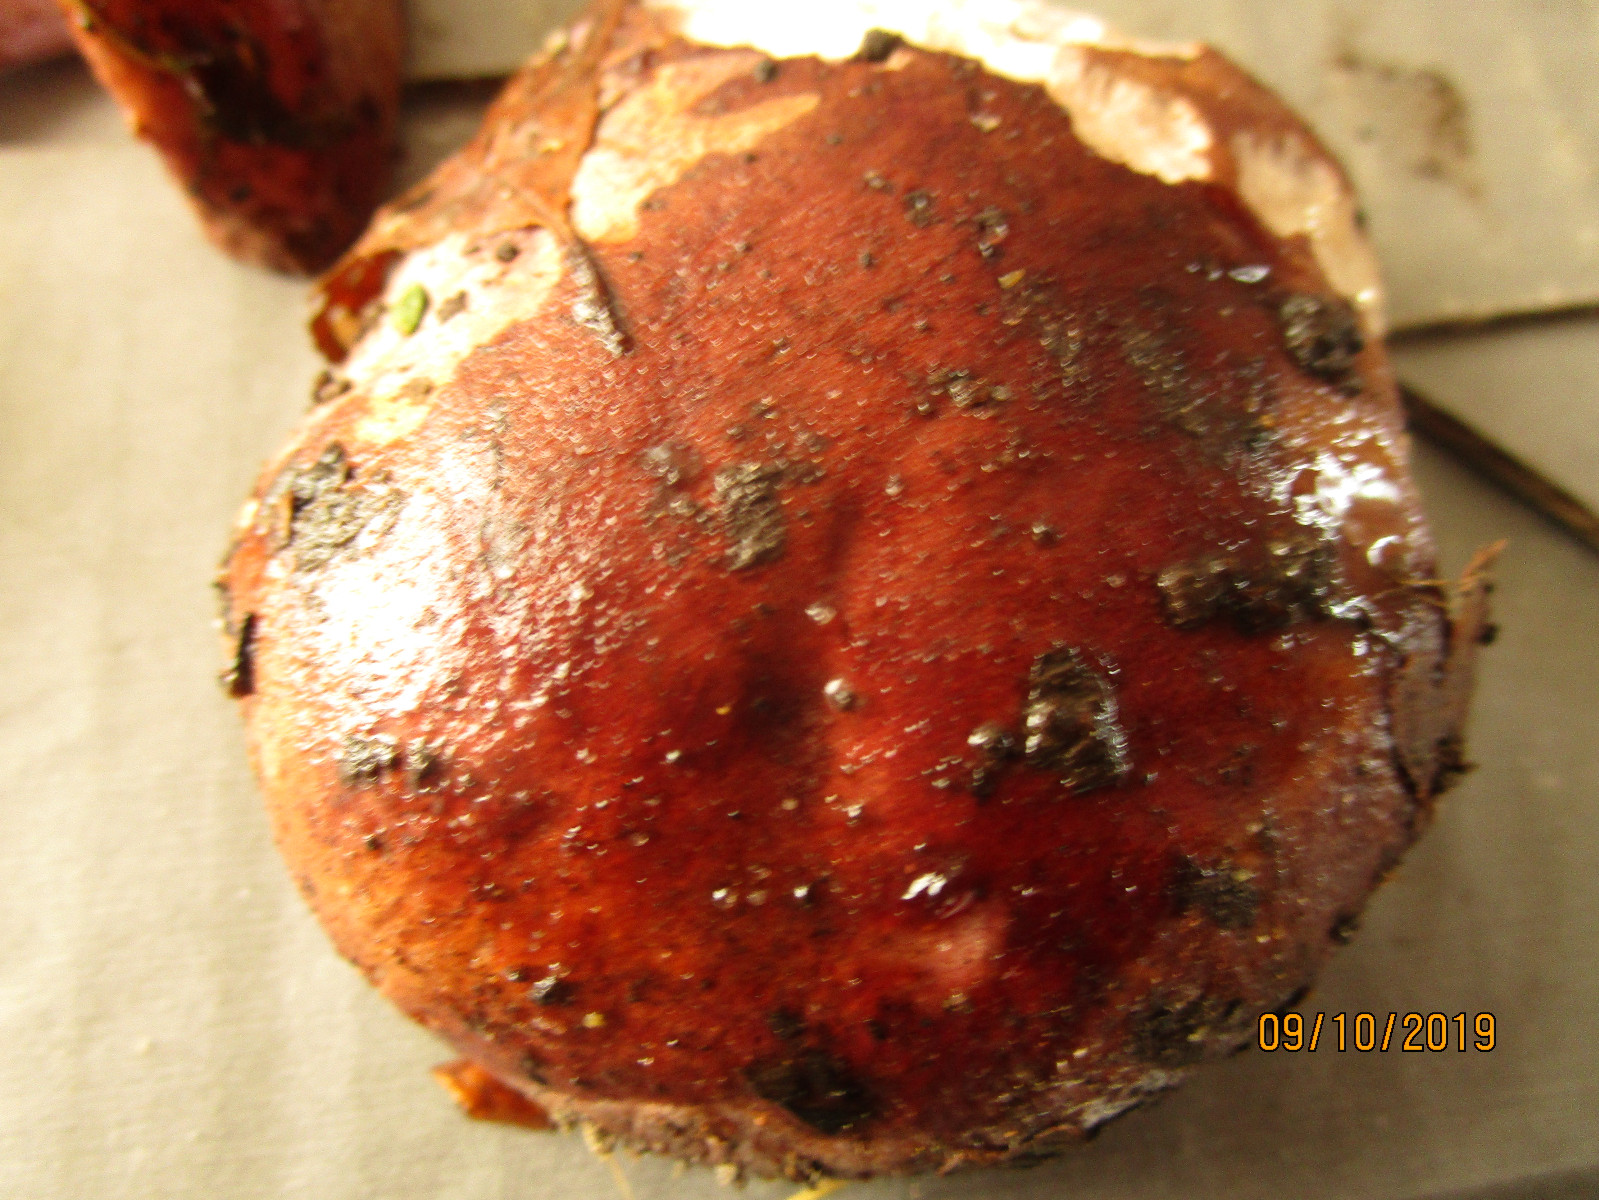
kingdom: Fungi
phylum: Basidiomycota
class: Agaricomycetes
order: Agaricales
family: Cortinariaceae
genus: Calonarius
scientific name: Calonarius violaceipes
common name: stedmoder-slørhat
